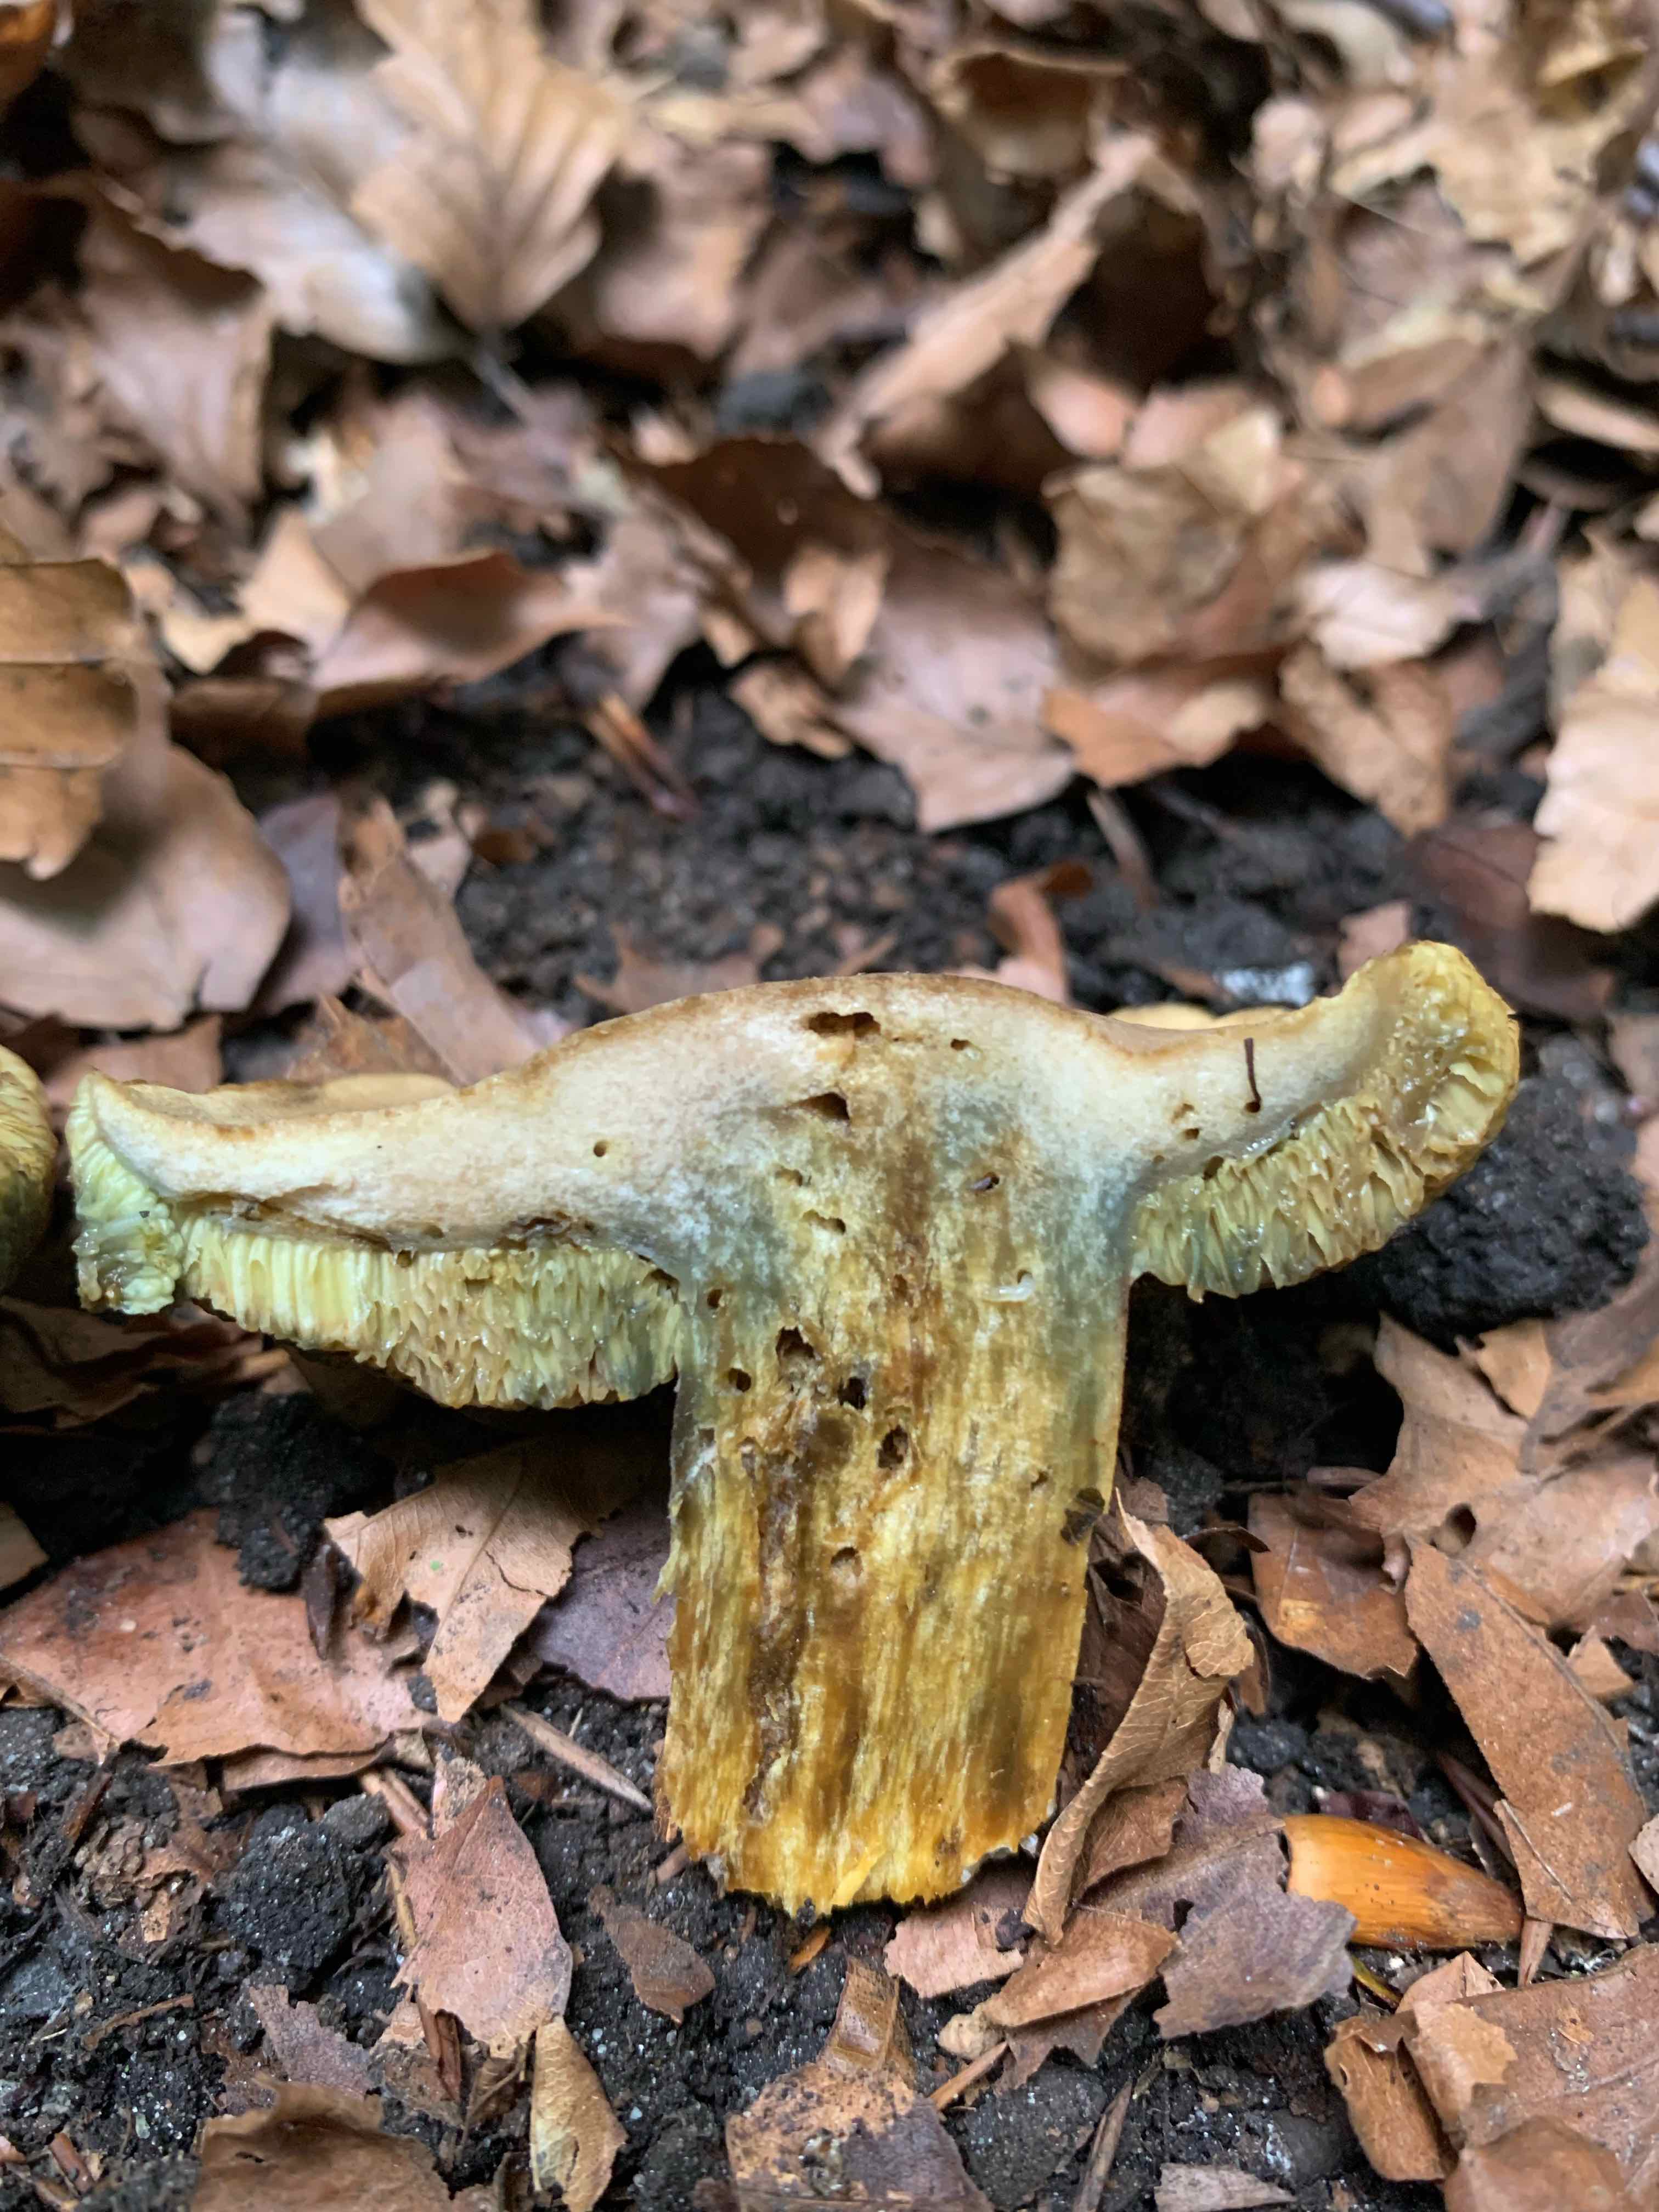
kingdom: Fungi
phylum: Basidiomycota
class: Agaricomycetes
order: Boletales
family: Boletaceae
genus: Hortiboletus
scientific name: Hortiboletus bubalinus
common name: aurora-rørhat
